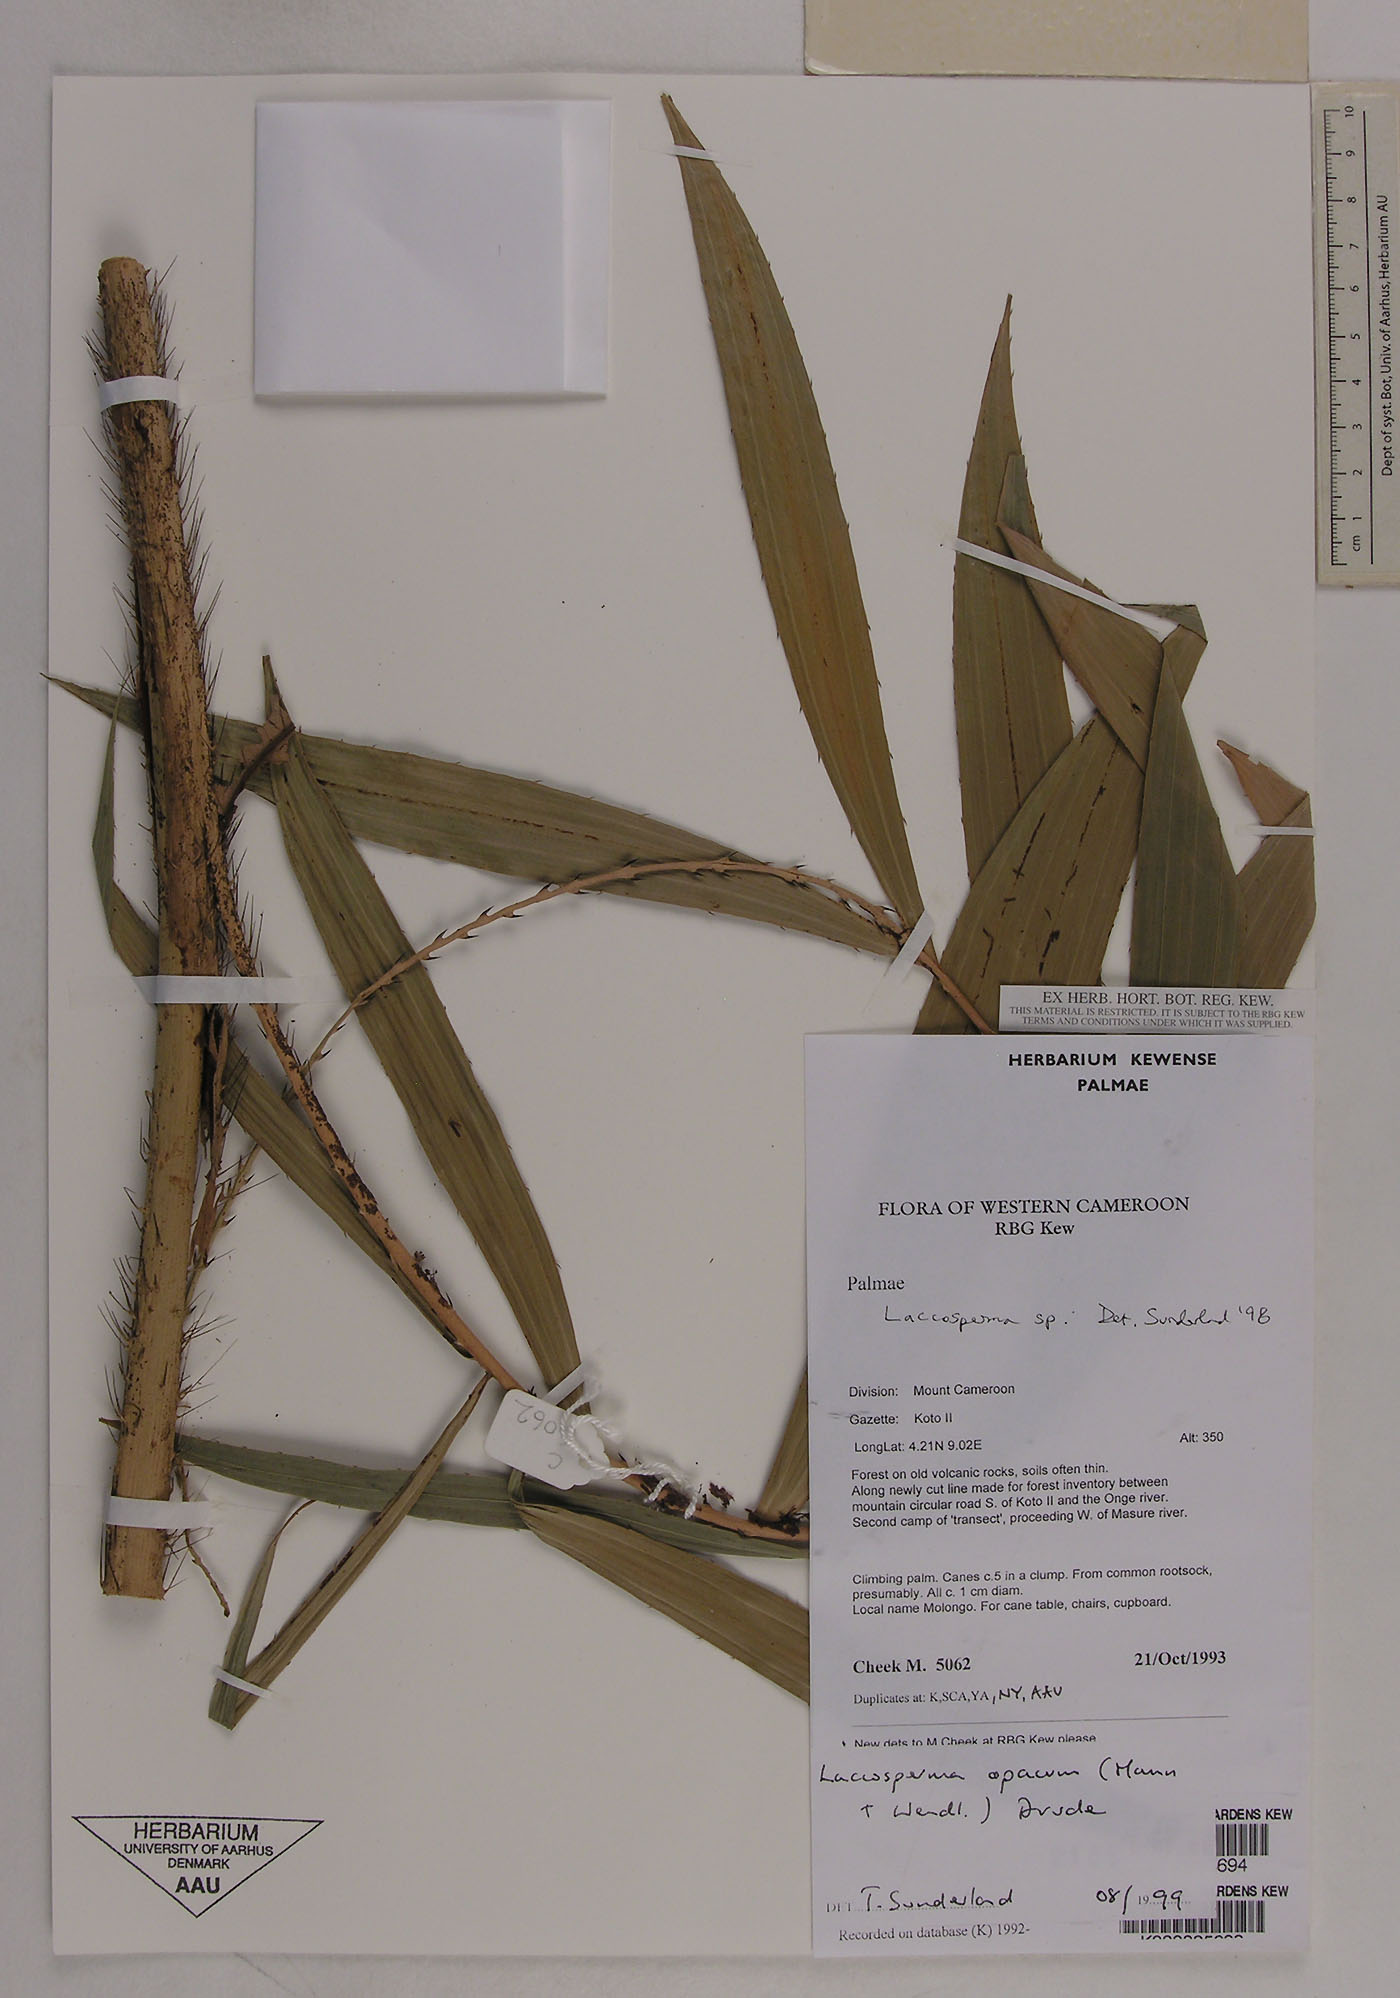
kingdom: Plantae
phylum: Tracheophyta
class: Liliopsida
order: Arecales
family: Arecaceae
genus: Laccosperma
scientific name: Laccosperma opacum
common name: Rattan
